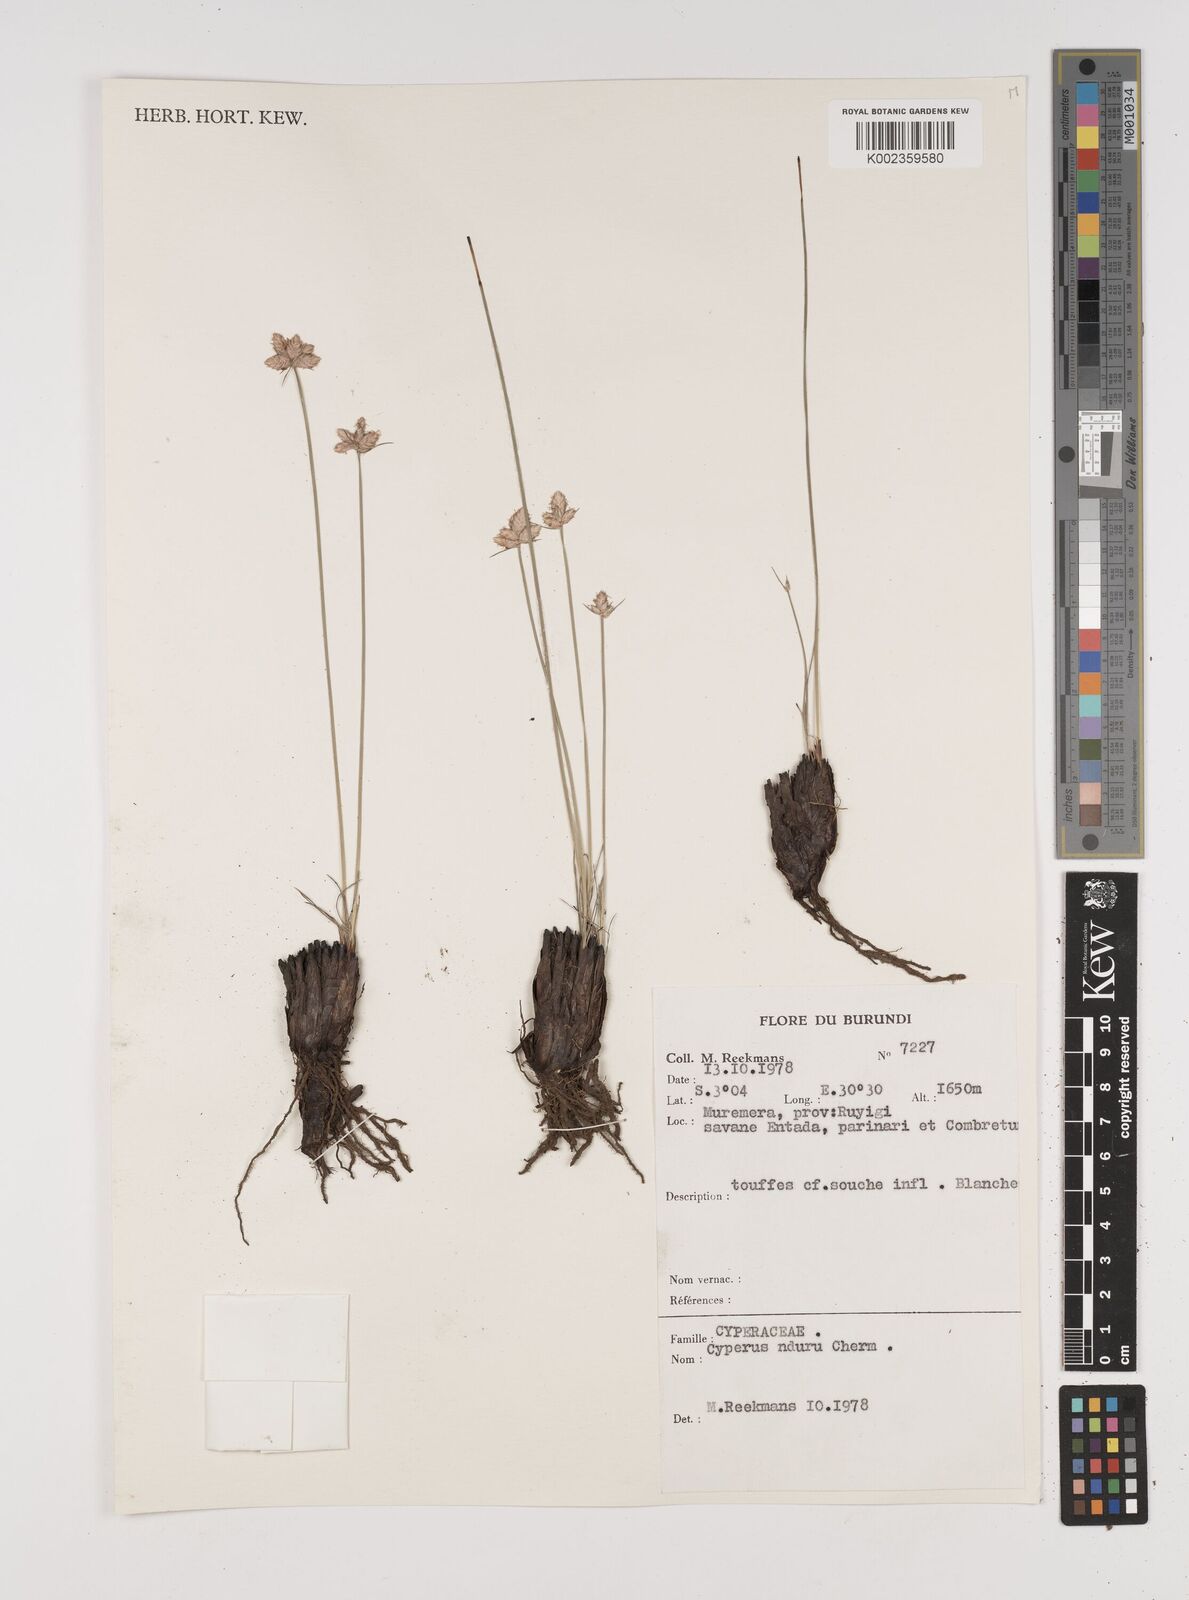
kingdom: Plantae
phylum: Tracheophyta
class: Liliopsida
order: Poales
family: Cyperaceae
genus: Cyperus
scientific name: Cyperus nduru
